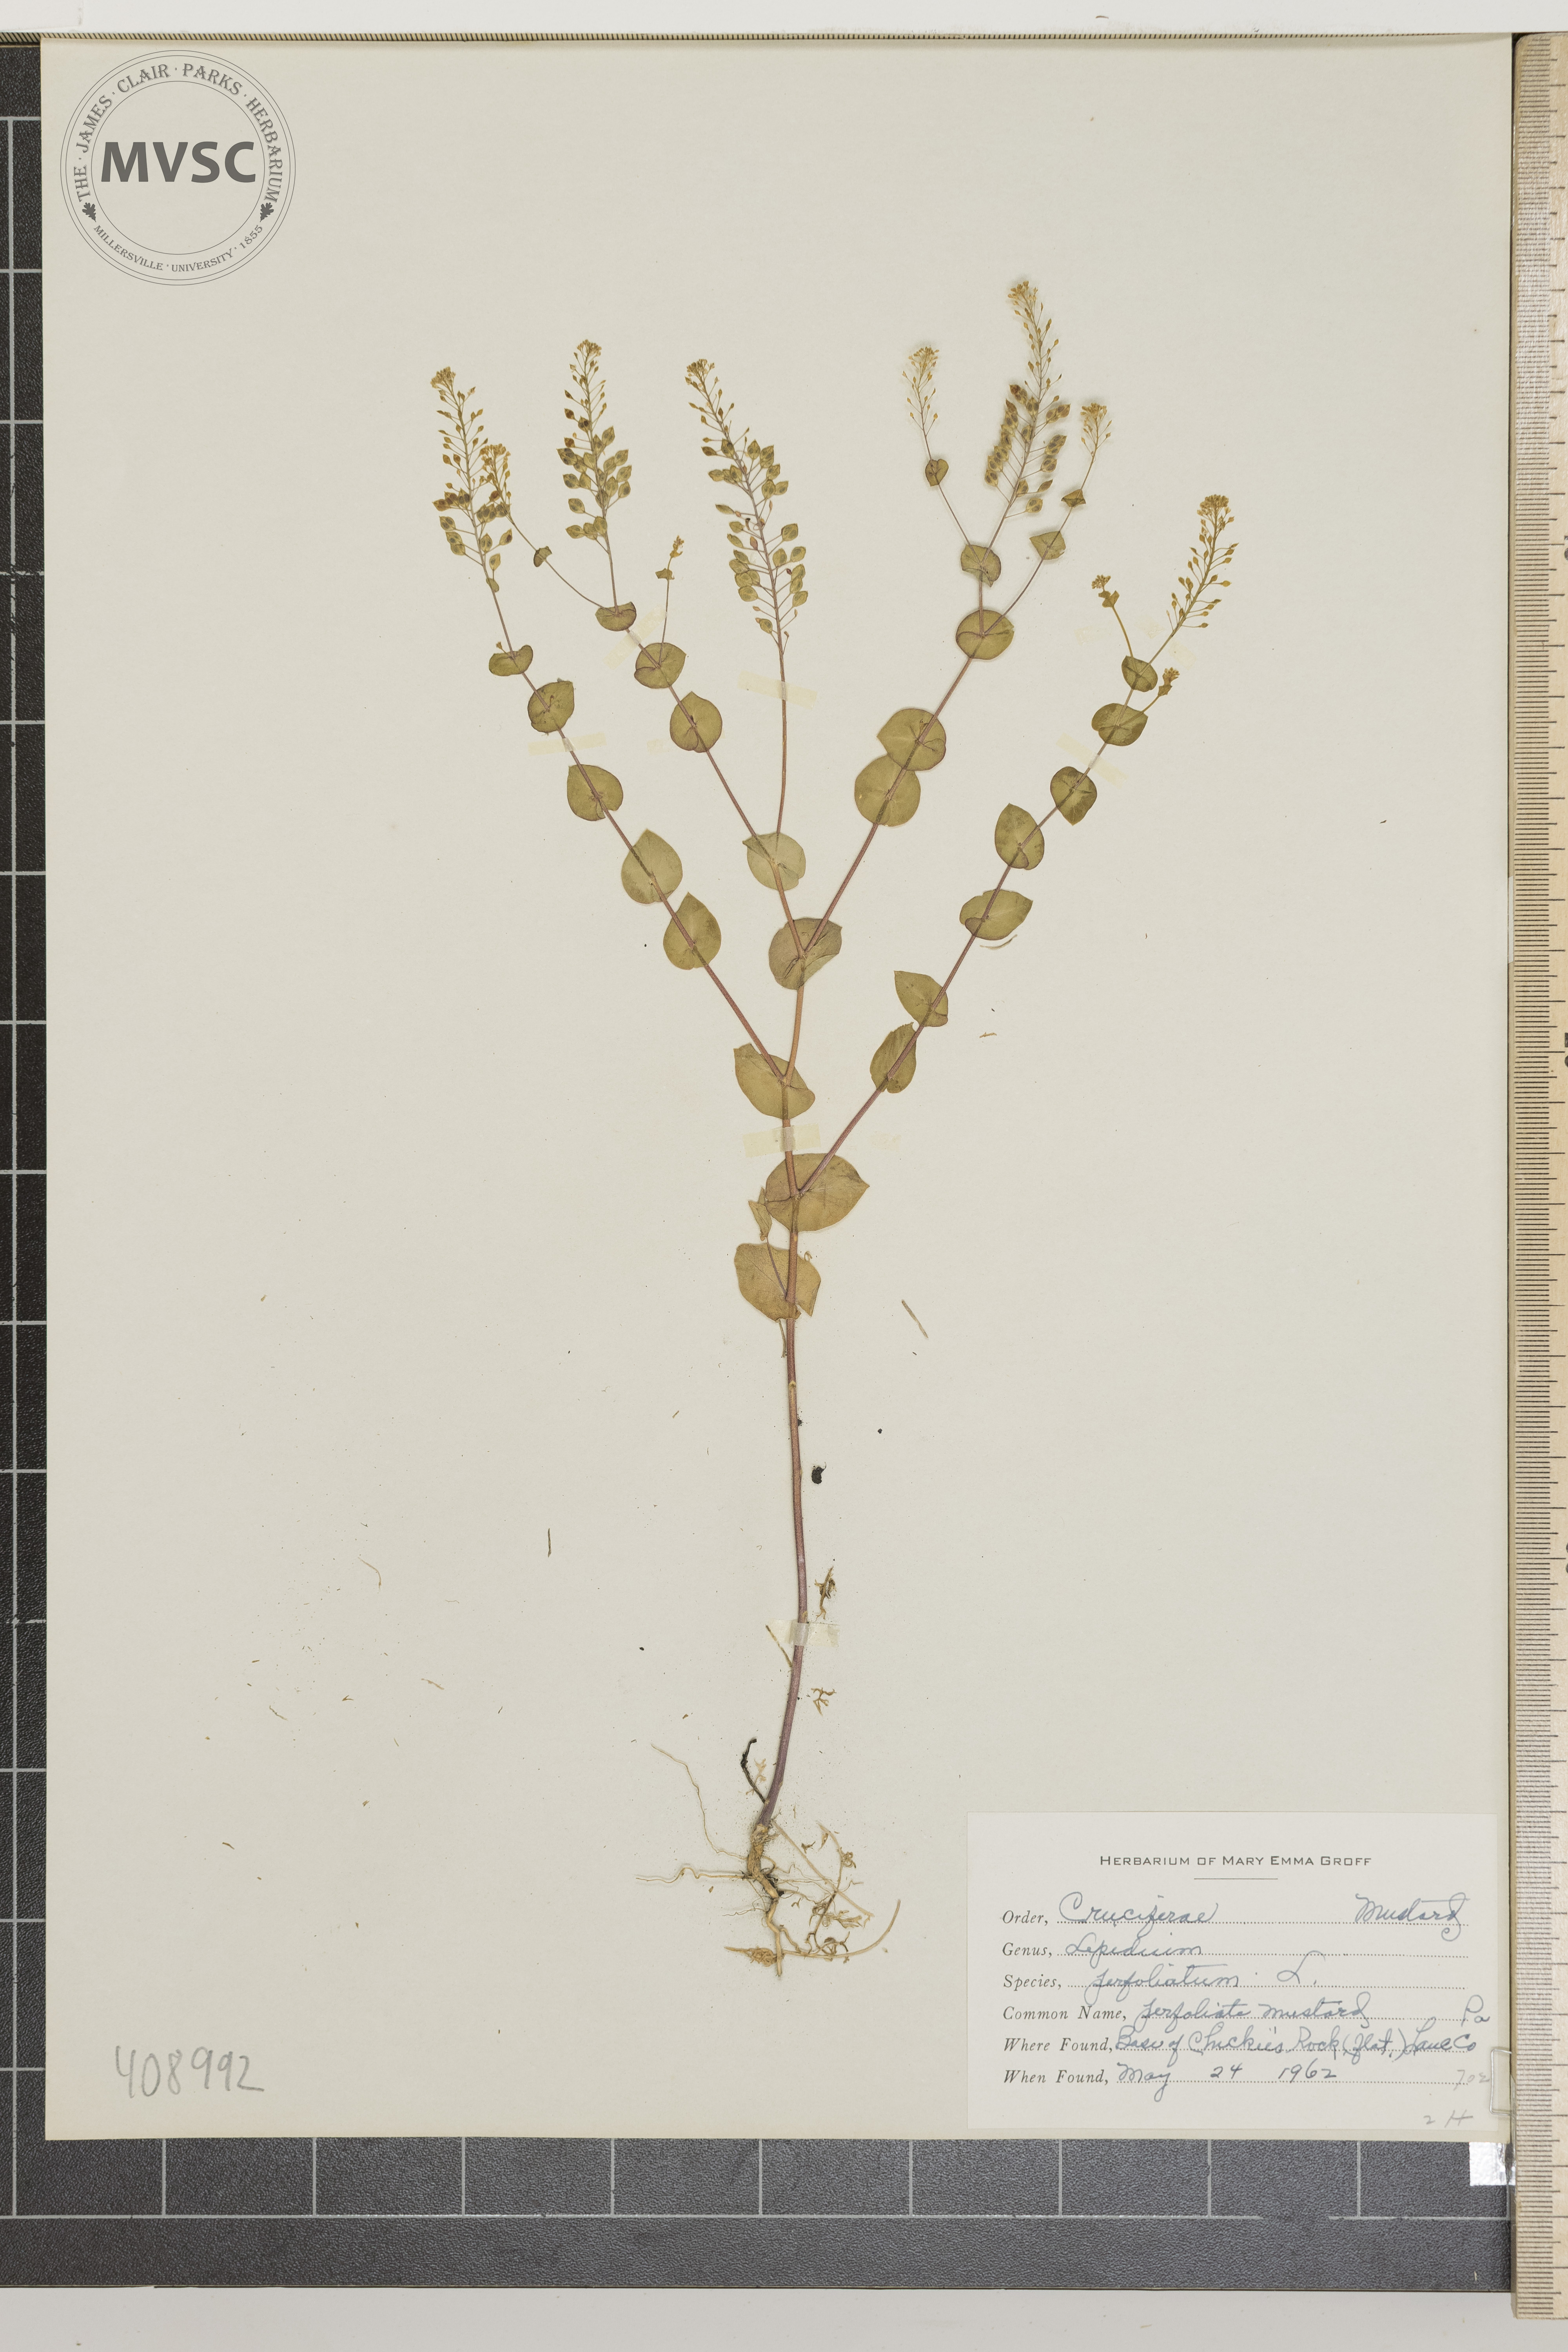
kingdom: Plantae
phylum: Tracheophyta
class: Magnoliopsida
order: Brassicales
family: Brassicaceae
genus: Lepidium
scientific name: Lepidium perfoliatum
